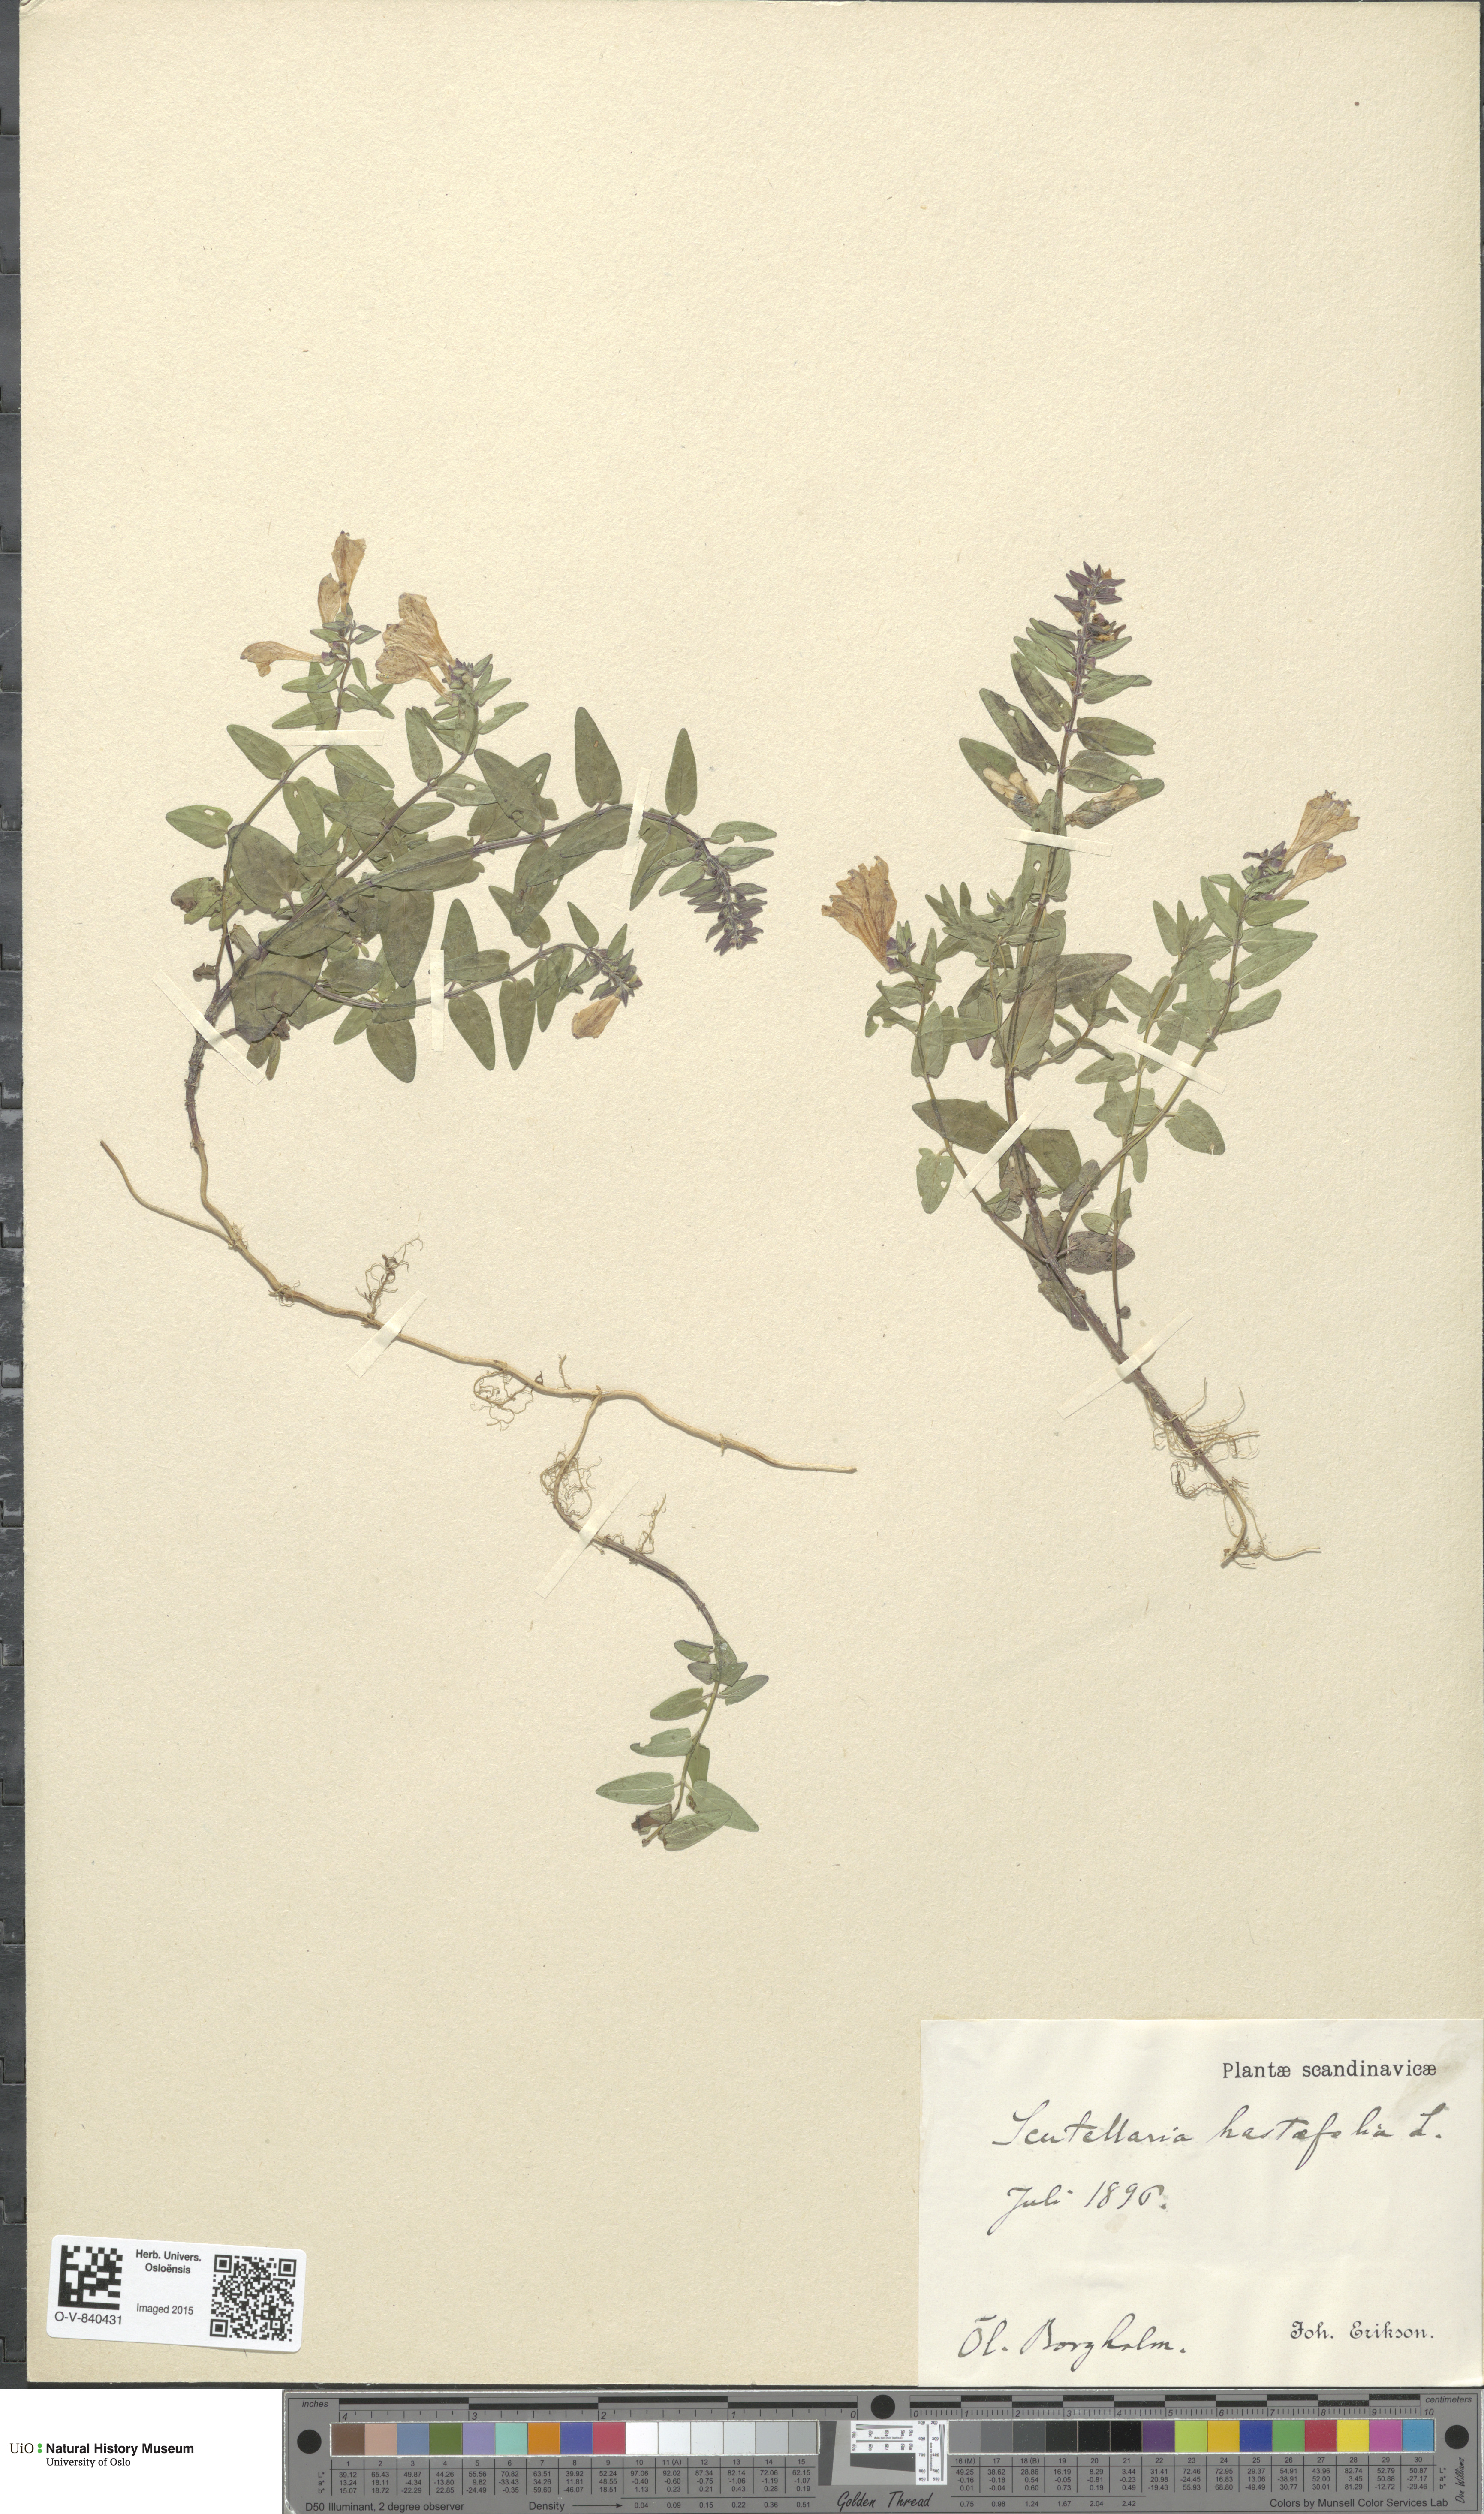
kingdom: Plantae
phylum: Tracheophyta
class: Magnoliopsida
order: Lamiales
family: Lamiaceae
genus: Scutellaria
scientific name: Scutellaria hastifolia
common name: Norfolk skullcap
